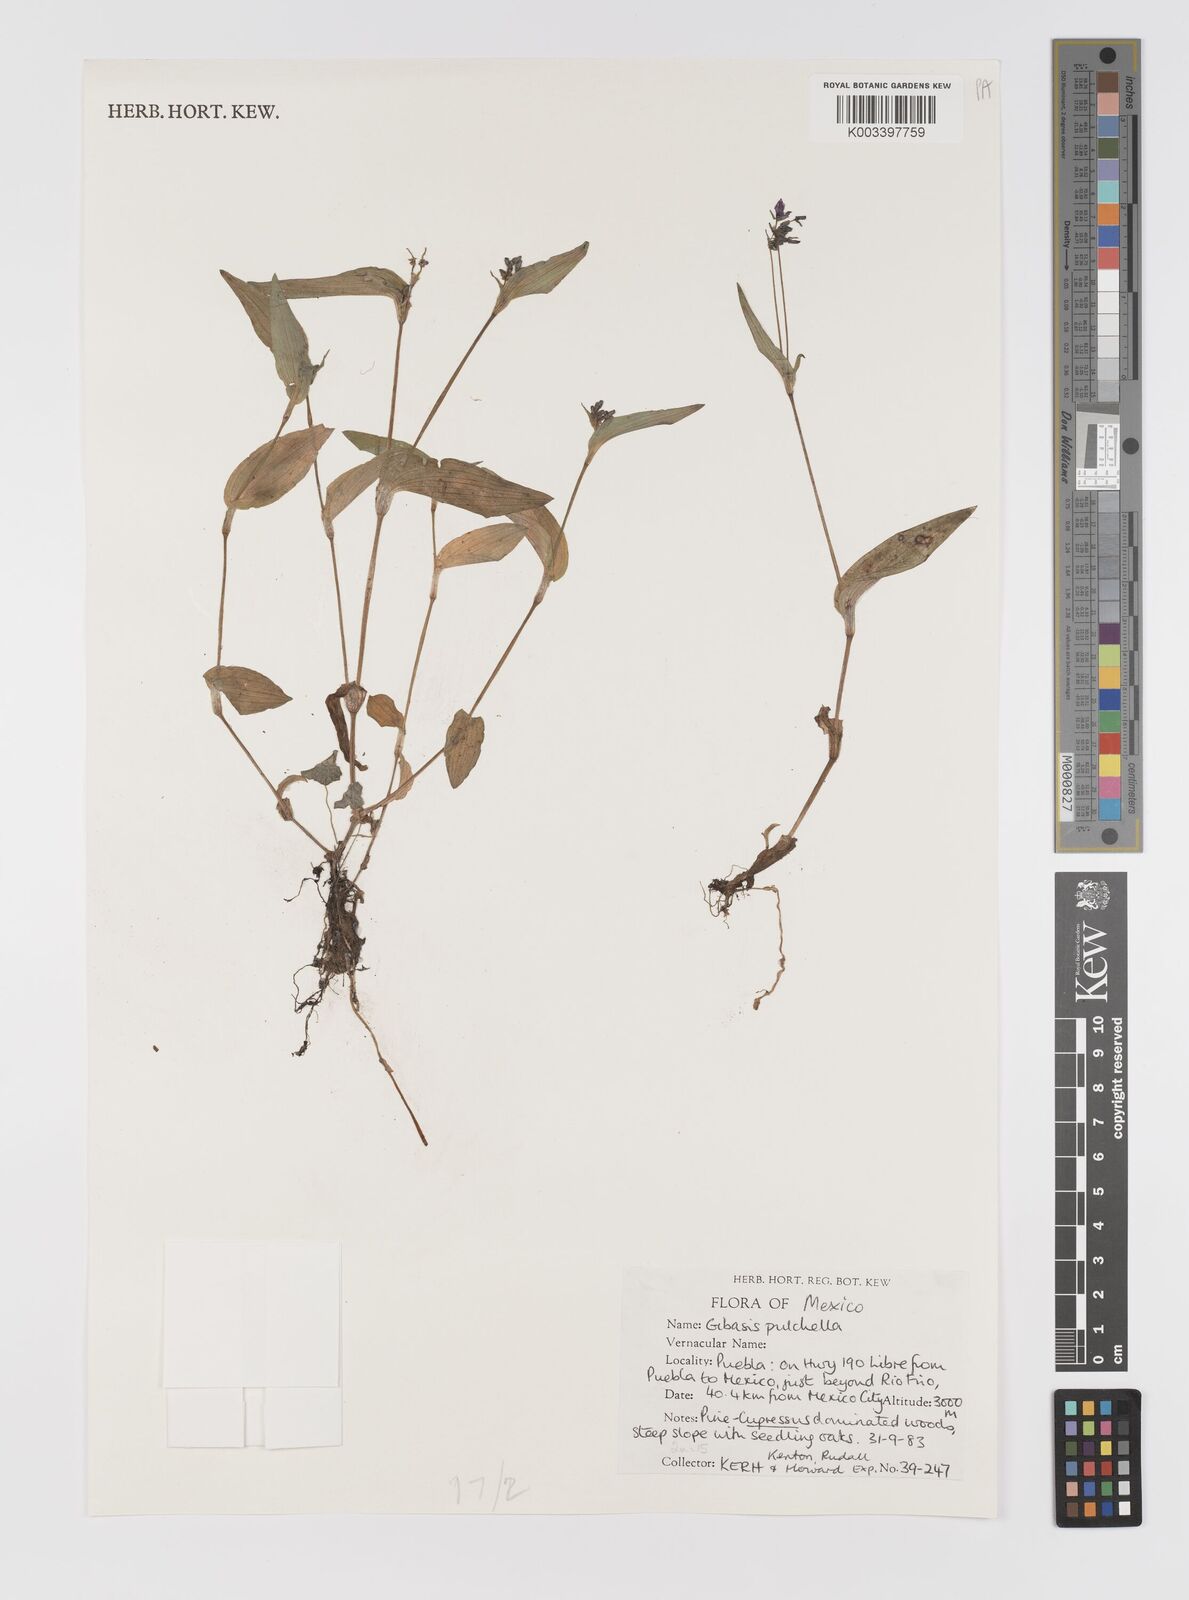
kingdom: Plantae
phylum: Tracheophyta
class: Liliopsida
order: Commelinales
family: Commelinaceae
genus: Gibasis
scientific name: Gibasis pulchella
